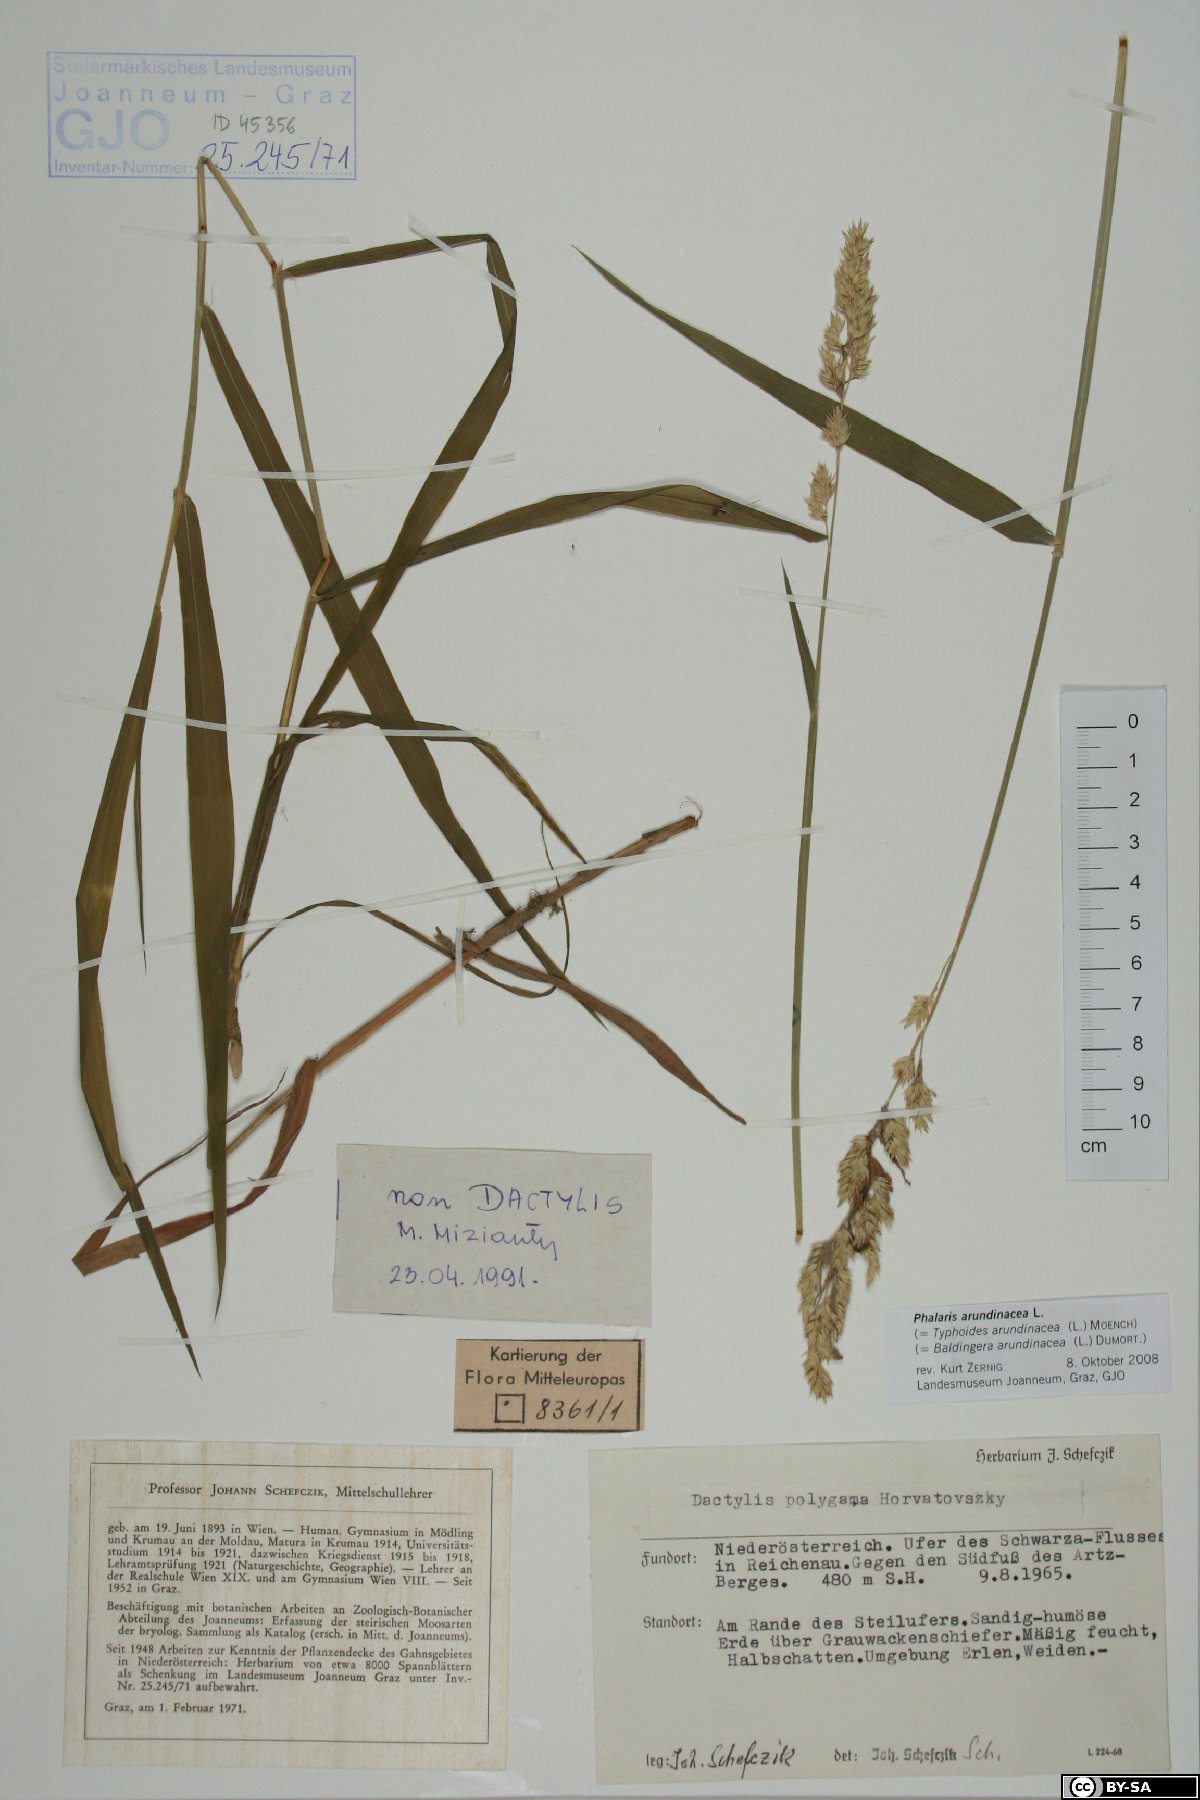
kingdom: Plantae
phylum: Tracheophyta
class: Liliopsida
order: Poales
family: Poaceae
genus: Phalaris
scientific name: Phalaris arundinacea
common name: Reed canary-grass
